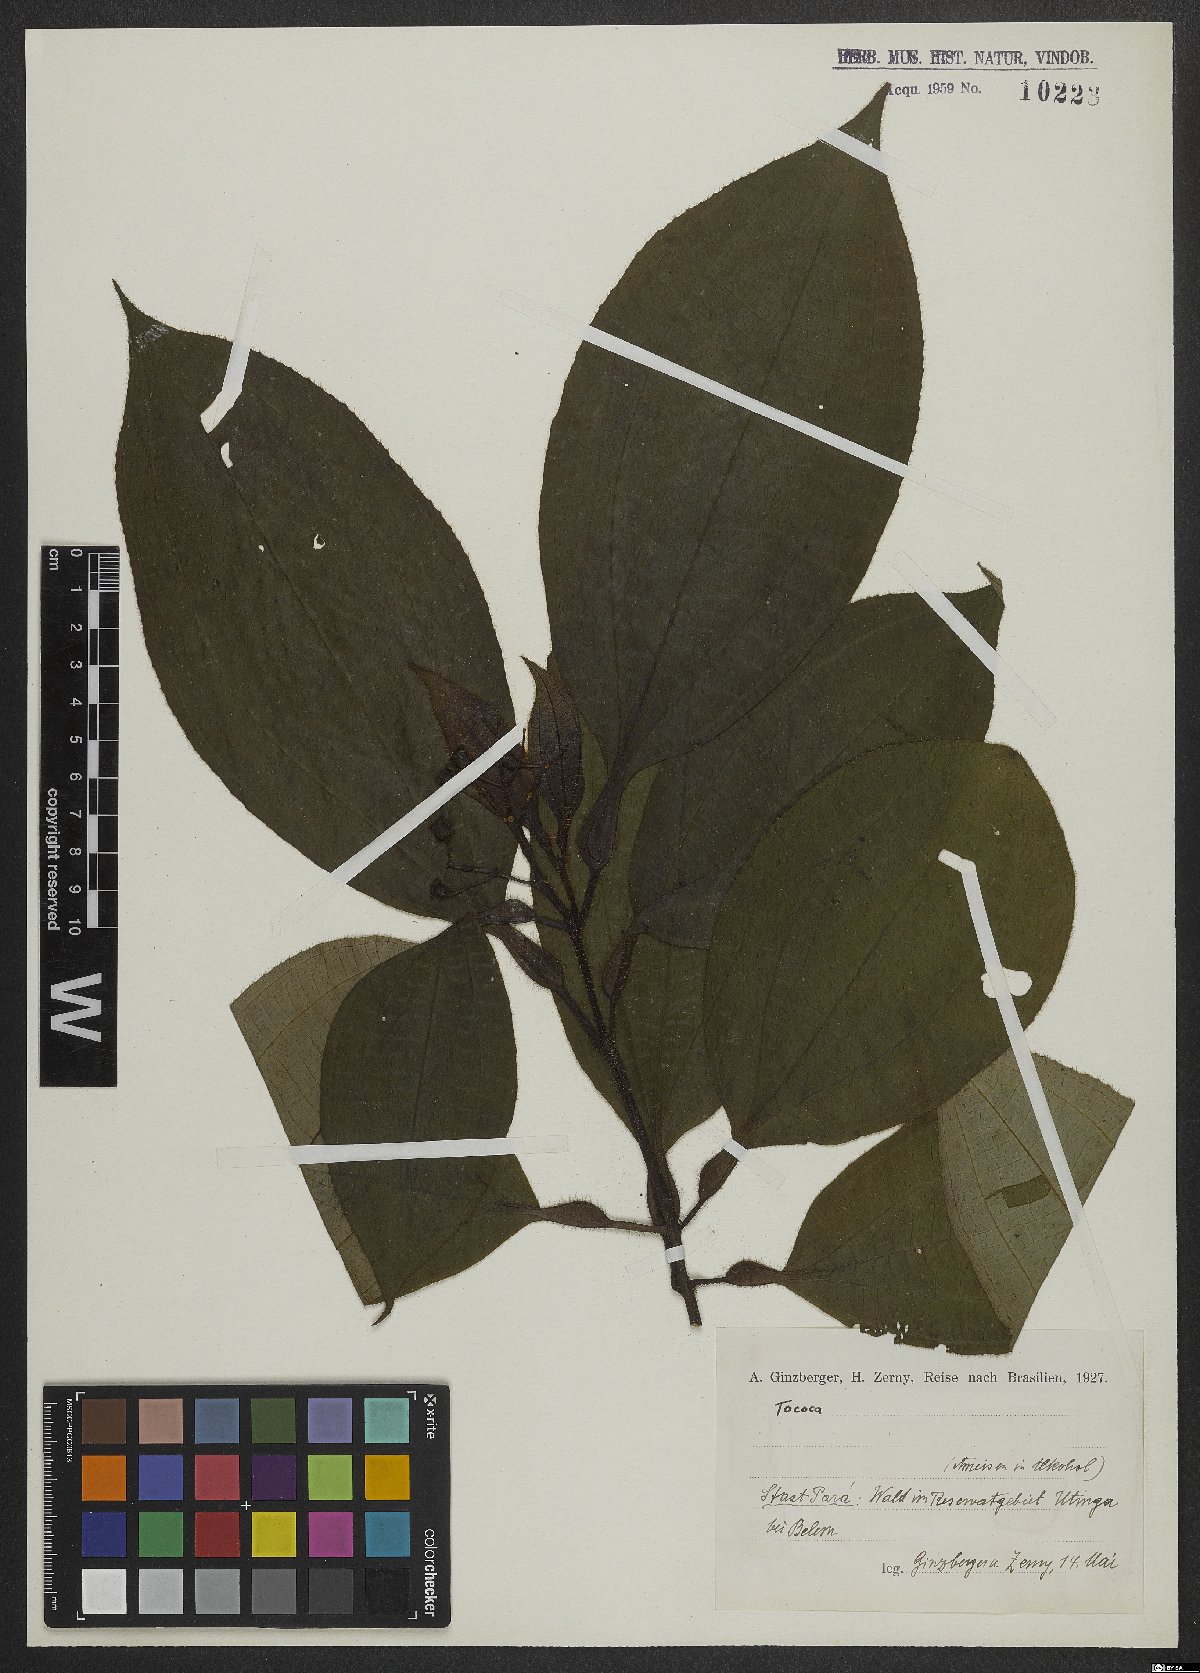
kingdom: Plantae
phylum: Tracheophyta
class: Magnoliopsida
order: Myrtales
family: Melastomataceae
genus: Miconia
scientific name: Miconia
